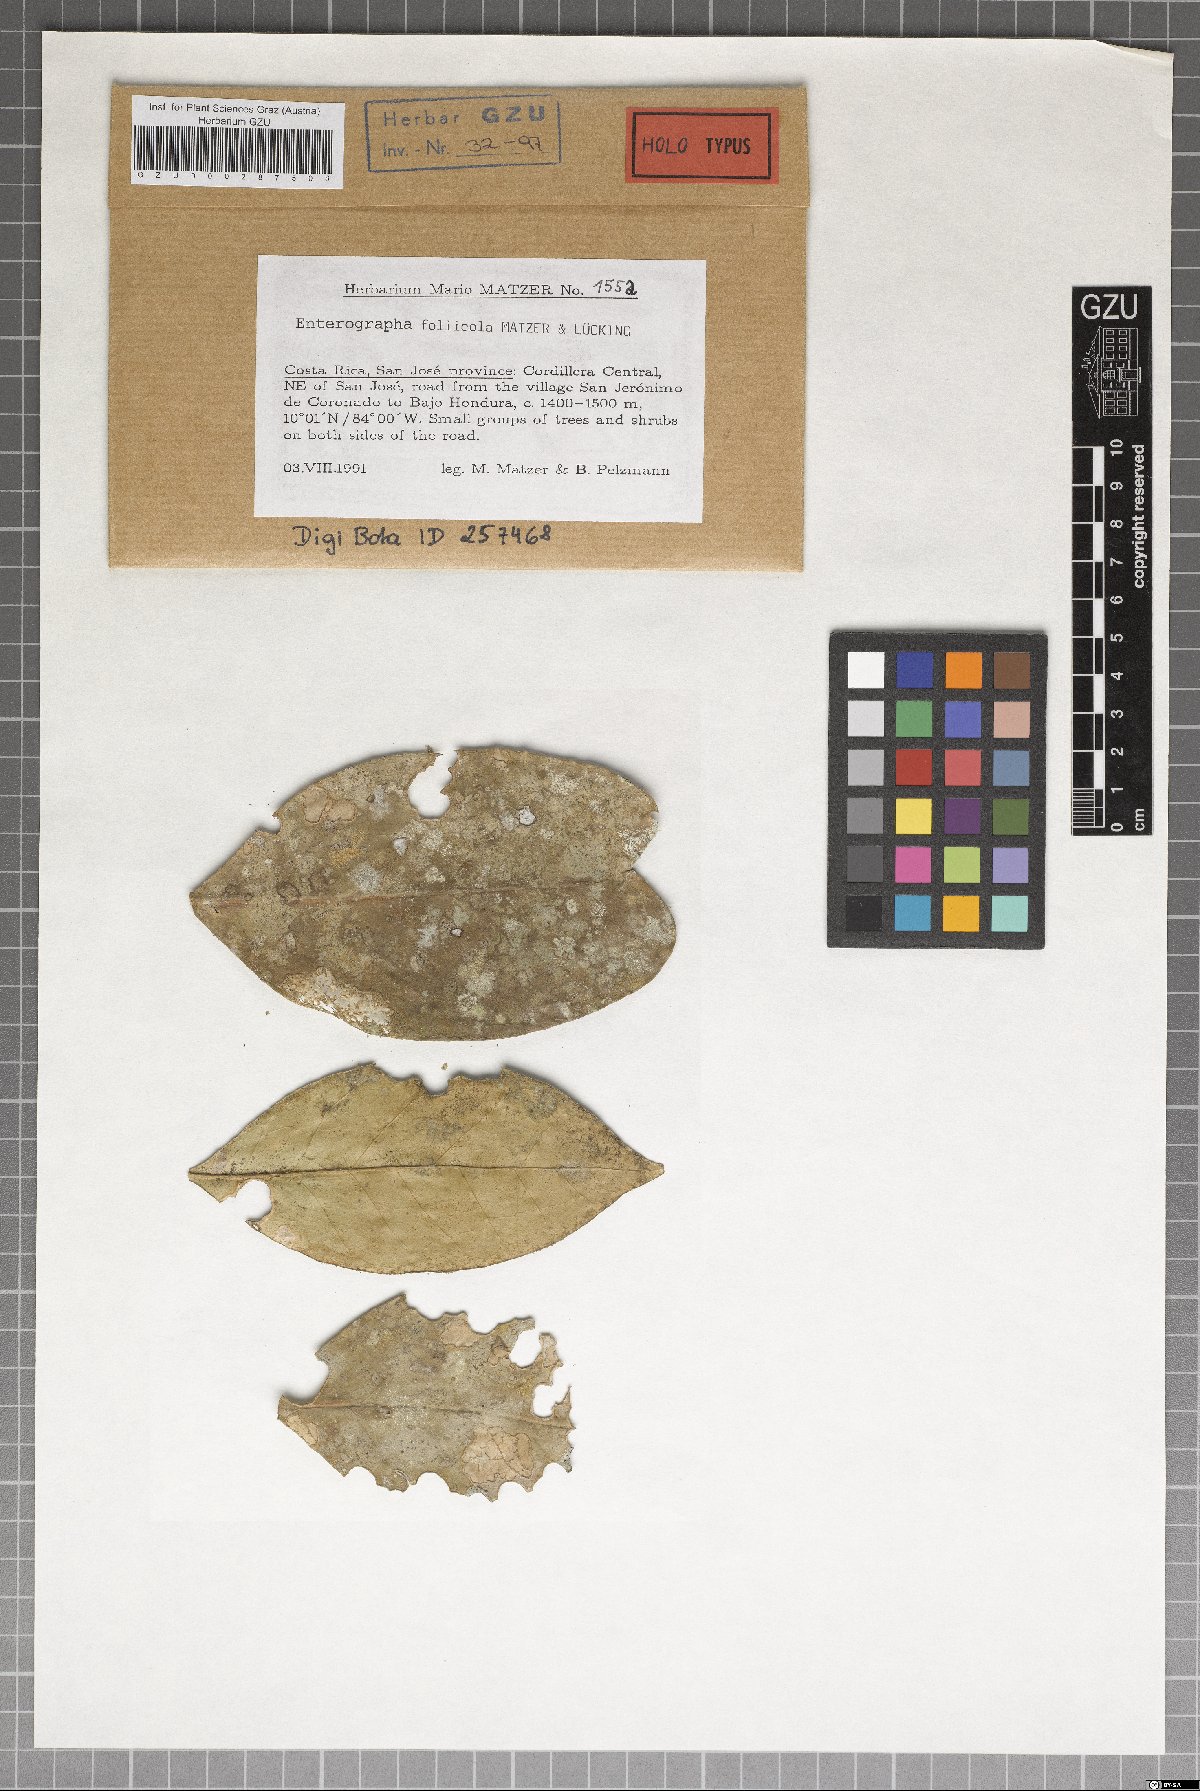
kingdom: Fungi
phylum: Ascomycota
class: Arthoniomycetes
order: Arthoniales
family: Roccellaceae
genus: Enterographa
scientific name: Enterographa
